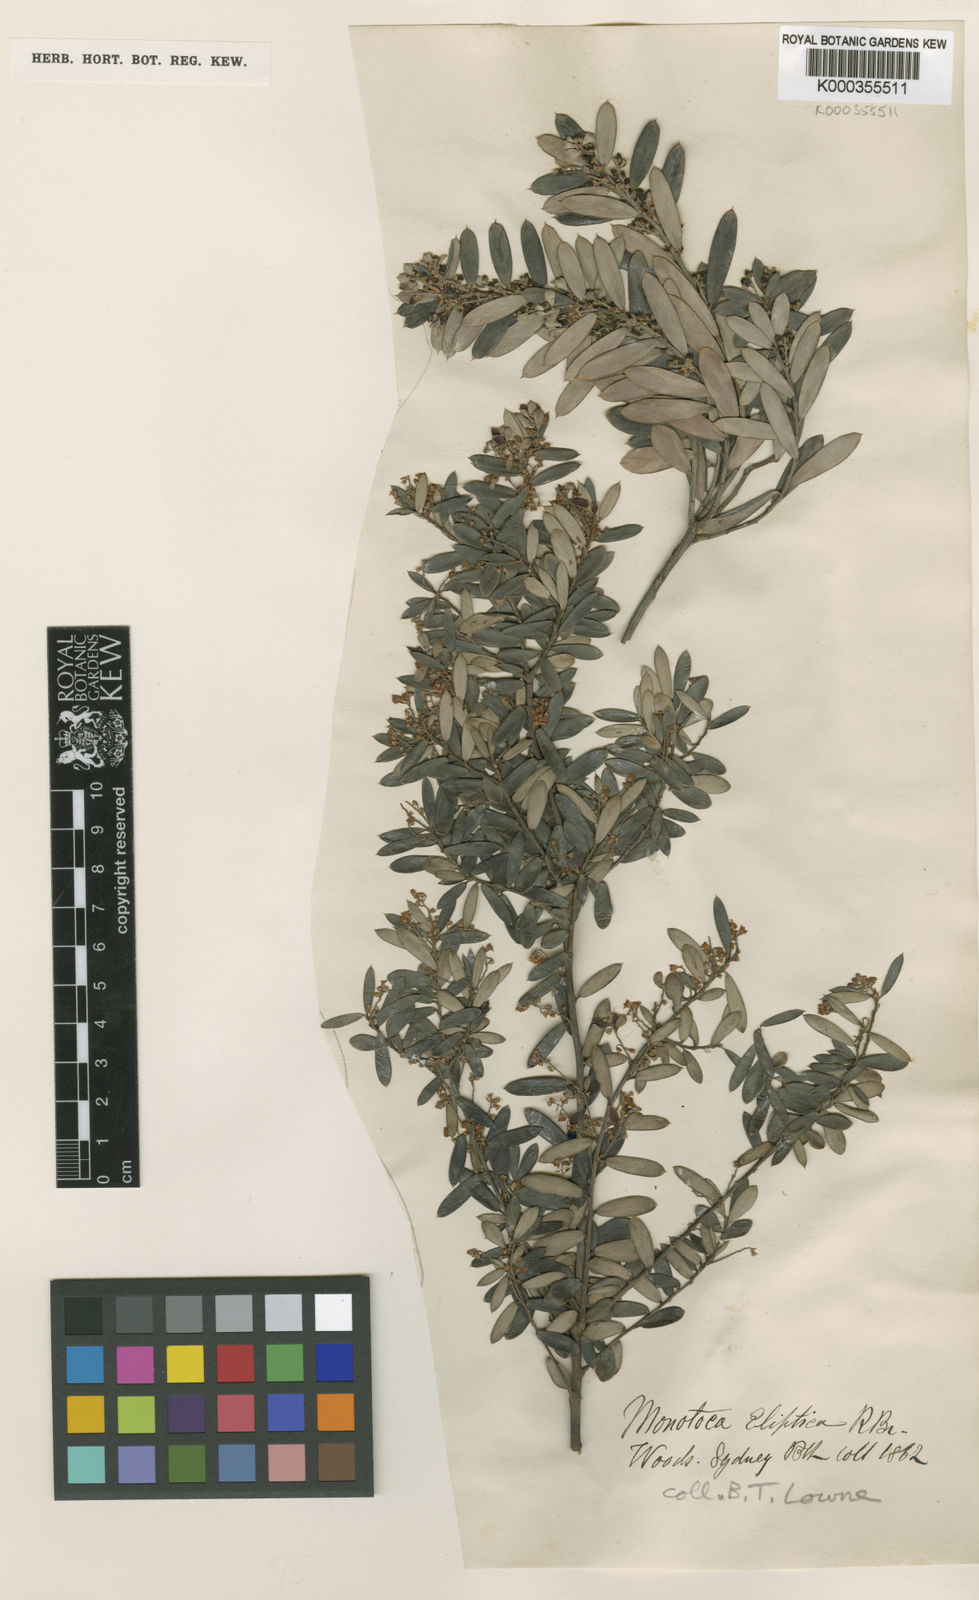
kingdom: Plantae
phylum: Tracheophyta
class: Magnoliopsida
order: Ericales
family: Ericaceae
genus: Monotoca
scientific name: Monotoca elliptica
